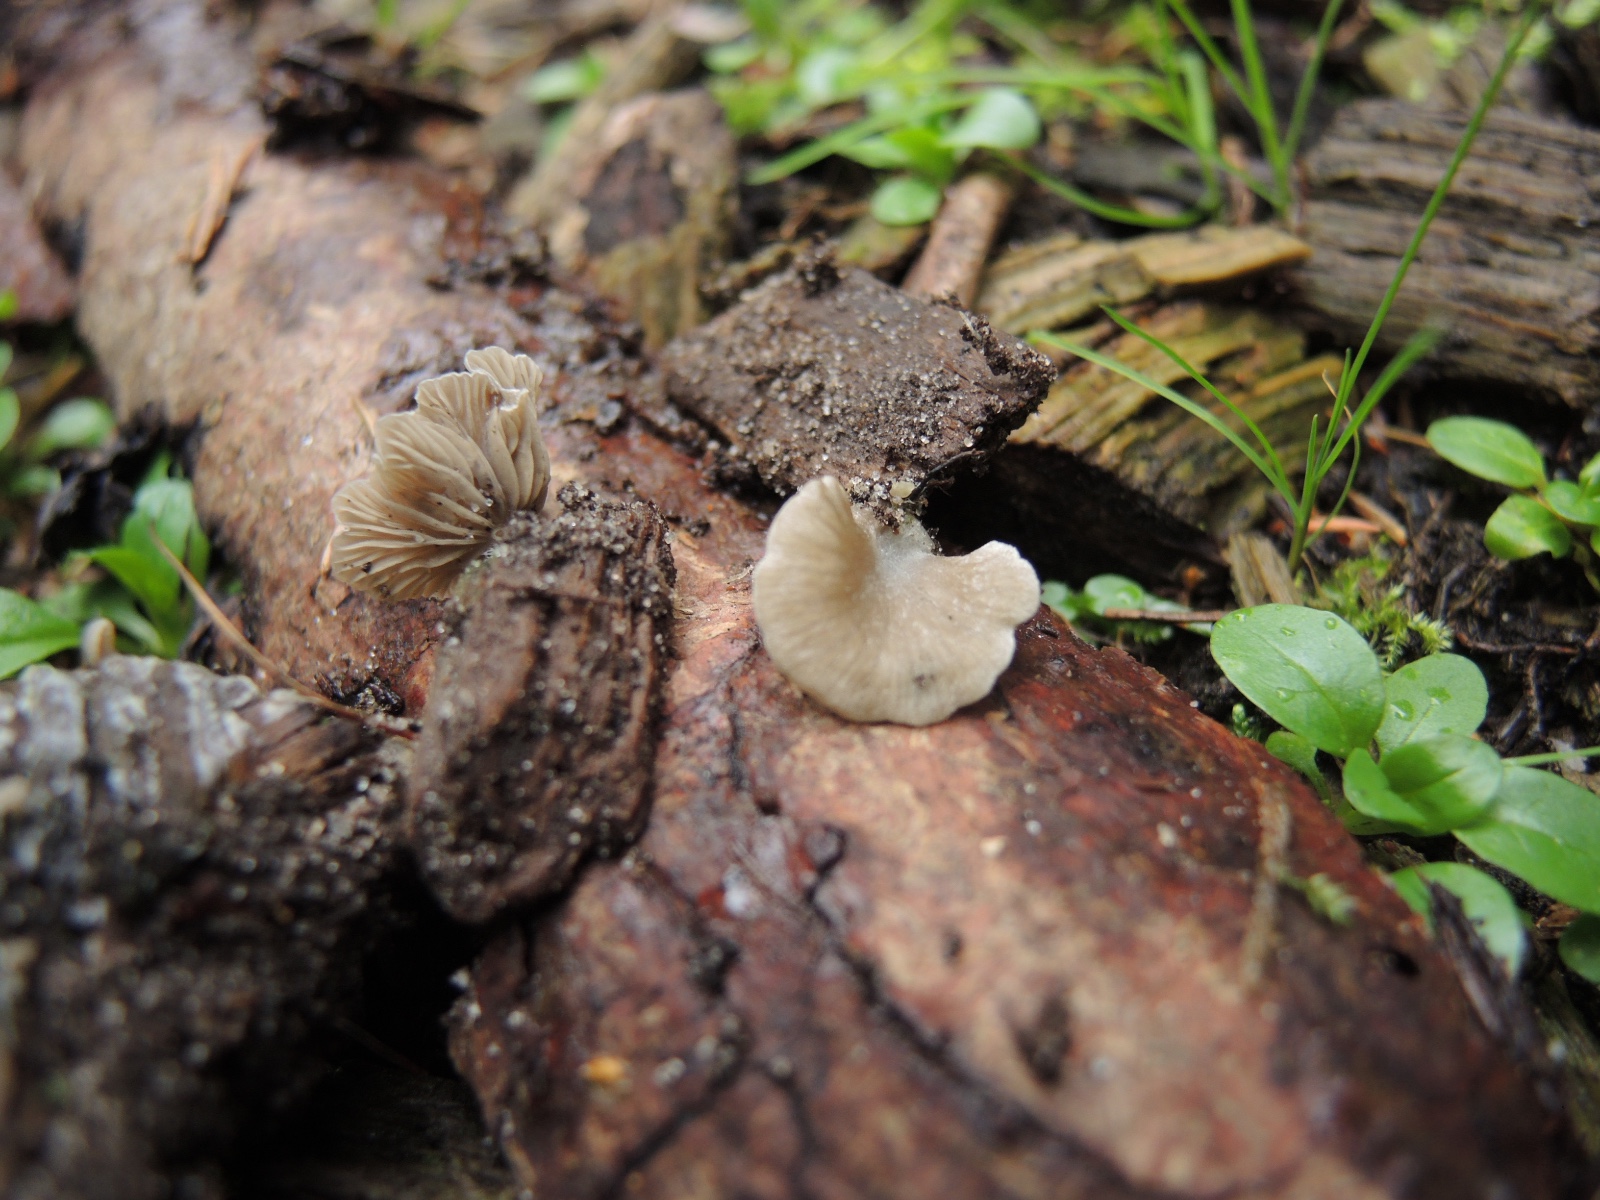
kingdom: Fungi
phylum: Basidiomycota
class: Agaricomycetes
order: Agaricales
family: Hygrophoraceae
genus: Arrhenia
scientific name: Arrhenia acerosa
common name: muslinge-fontænehat
